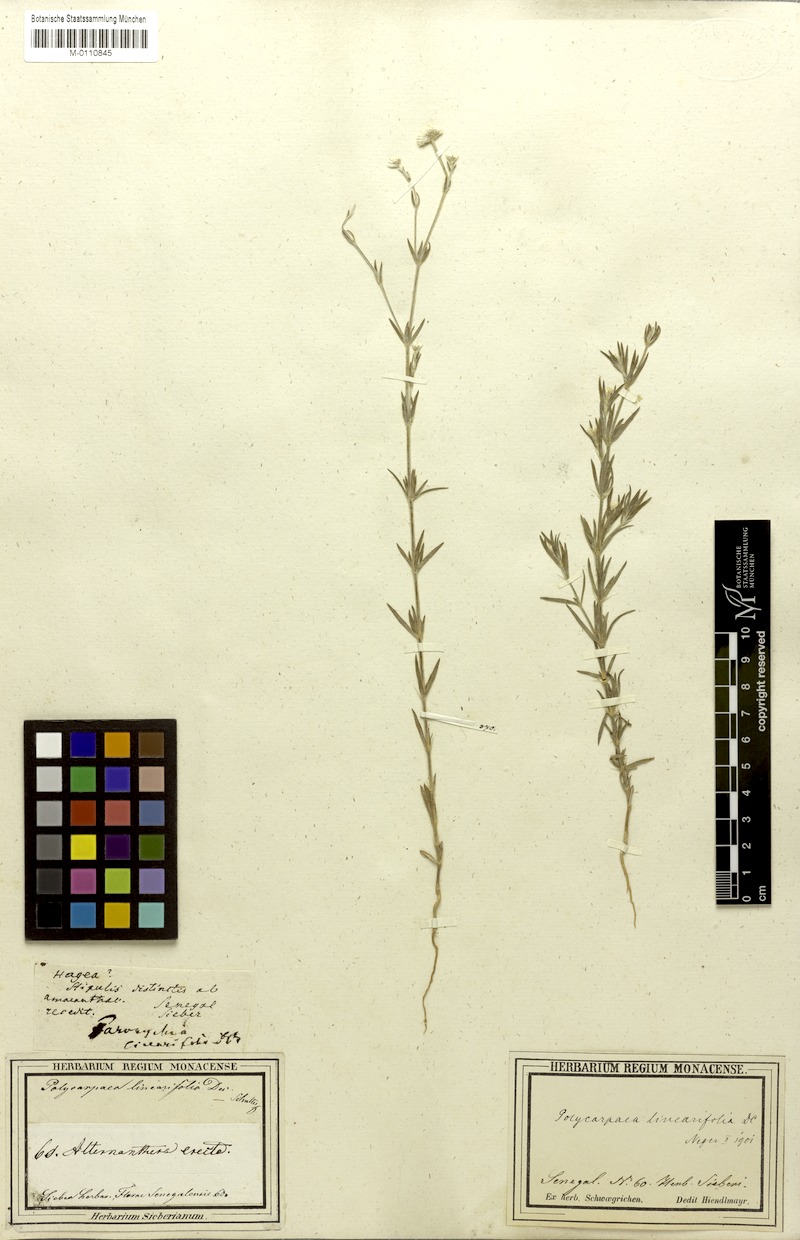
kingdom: Plantae
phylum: Tracheophyta
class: Magnoliopsida
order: Caryophyllales
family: Caryophyllaceae
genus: Polycarpaea
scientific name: Polycarpaea linearifolia
